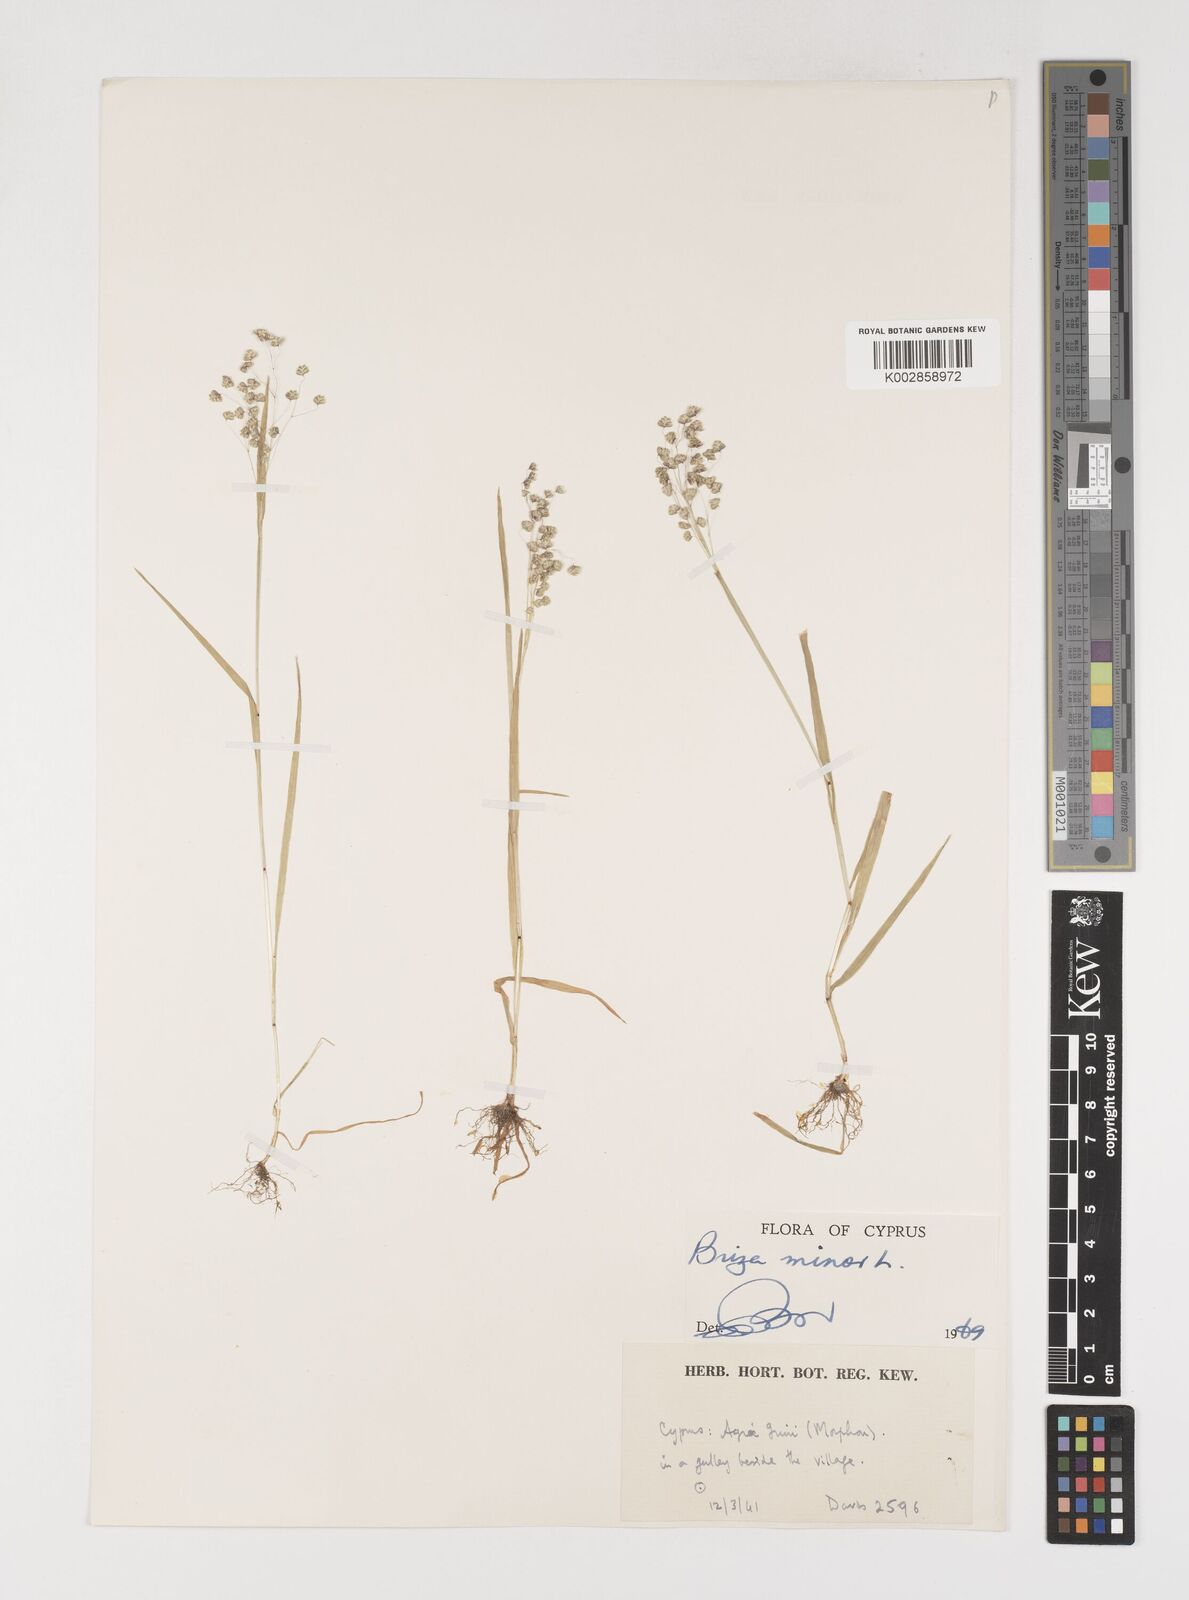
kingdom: Plantae
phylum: Tracheophyta
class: Liliopsida
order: Poales
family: Poaceae
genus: Briza
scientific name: Briza minor
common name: Lesser quaking-grass
